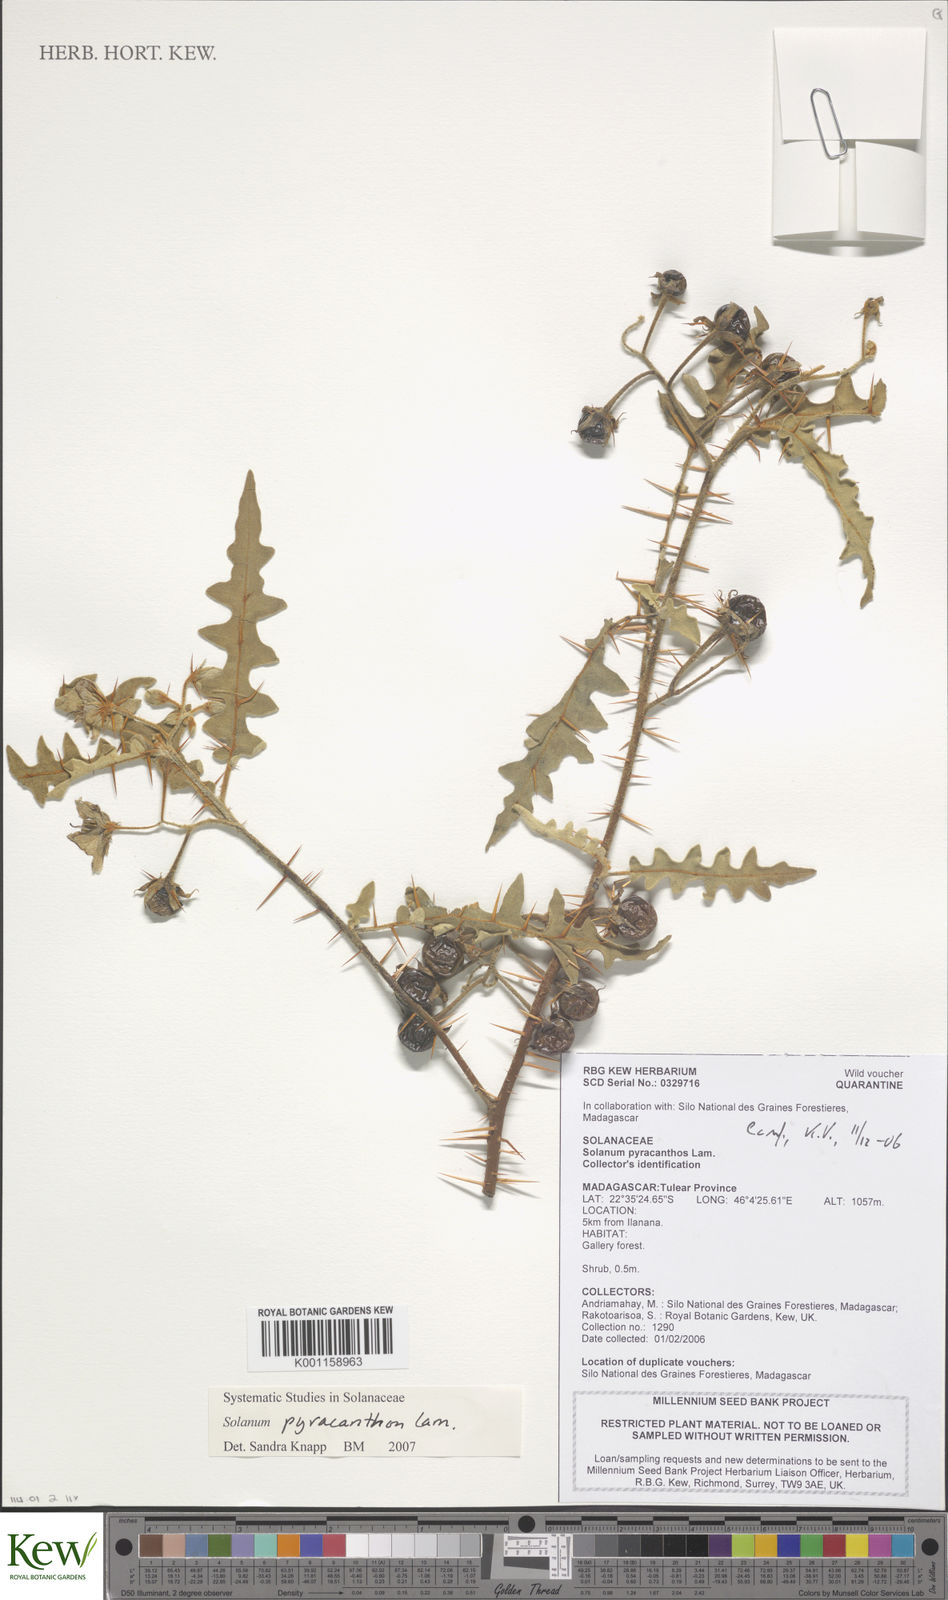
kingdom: Plantae
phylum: Tracheophyta
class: Magnoliopsida
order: Solanales
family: Solanaceae
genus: Solanum
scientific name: Solanum pyracanthos
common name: Porcupine-tomato
